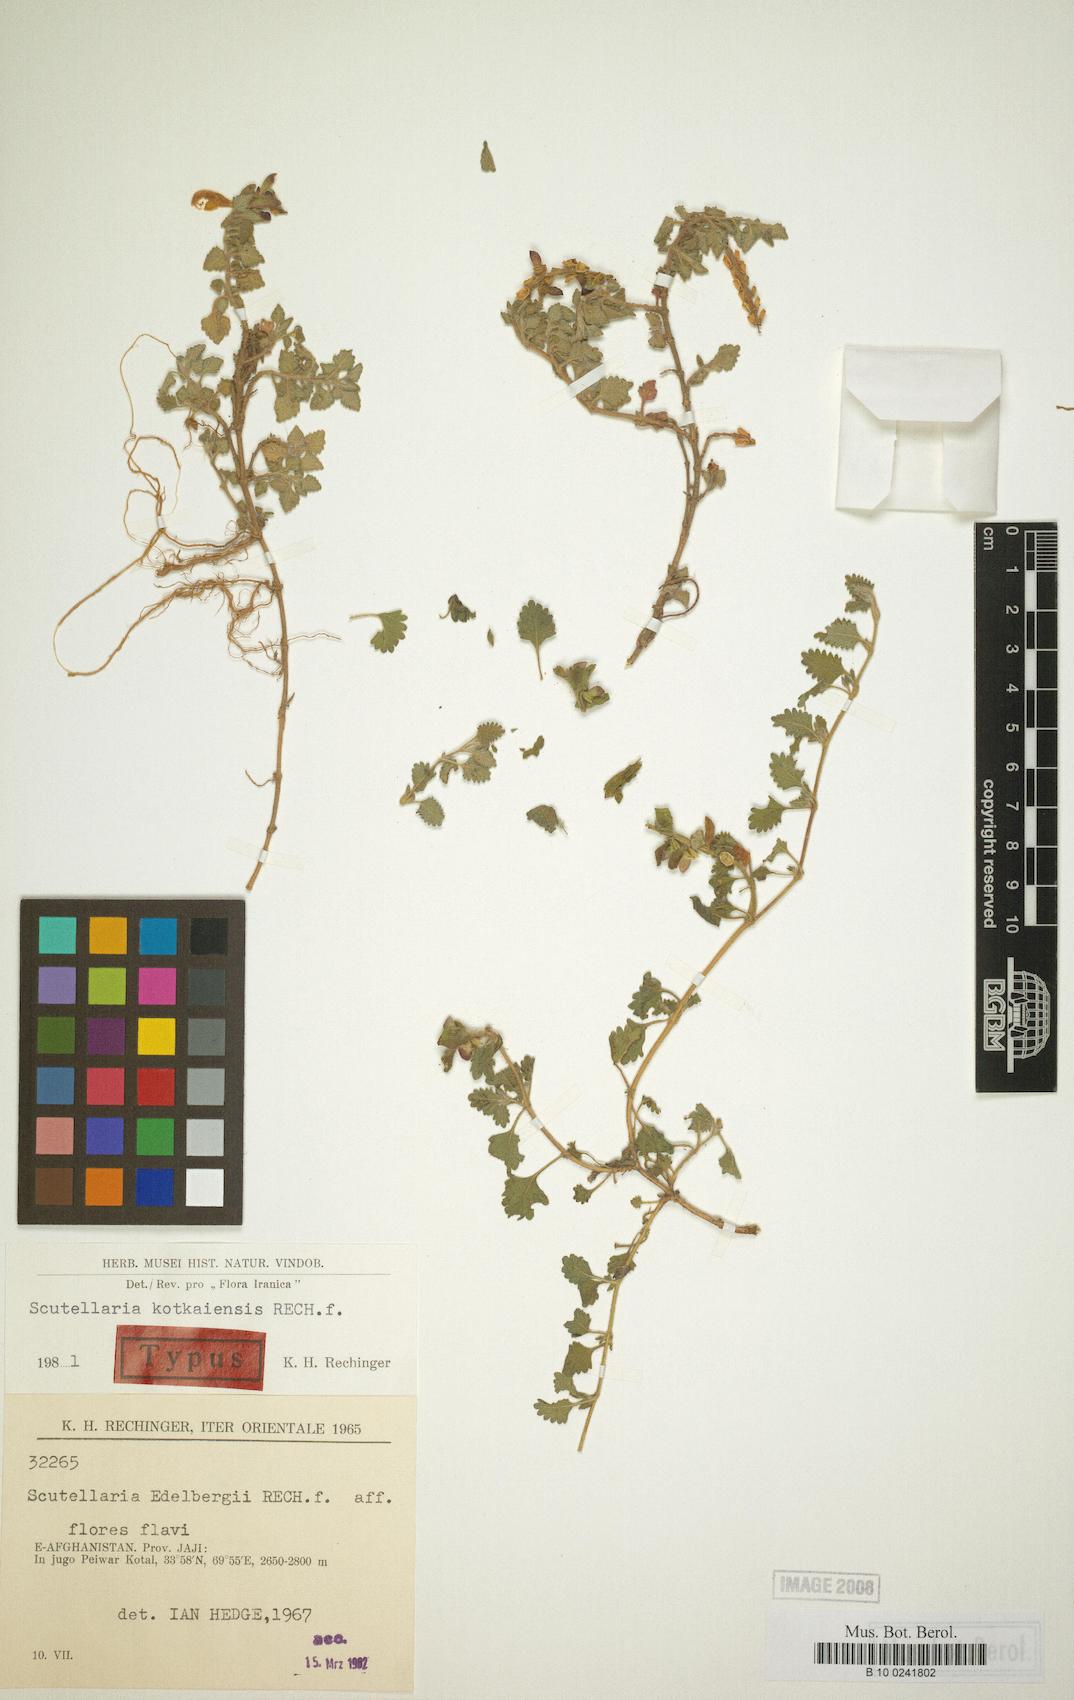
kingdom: Plantae
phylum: Tracheophyta
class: Magnoliopsida
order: Lamiales
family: Lamiaceae
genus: Scutellaria
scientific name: Scutellaria kotkaiensis
